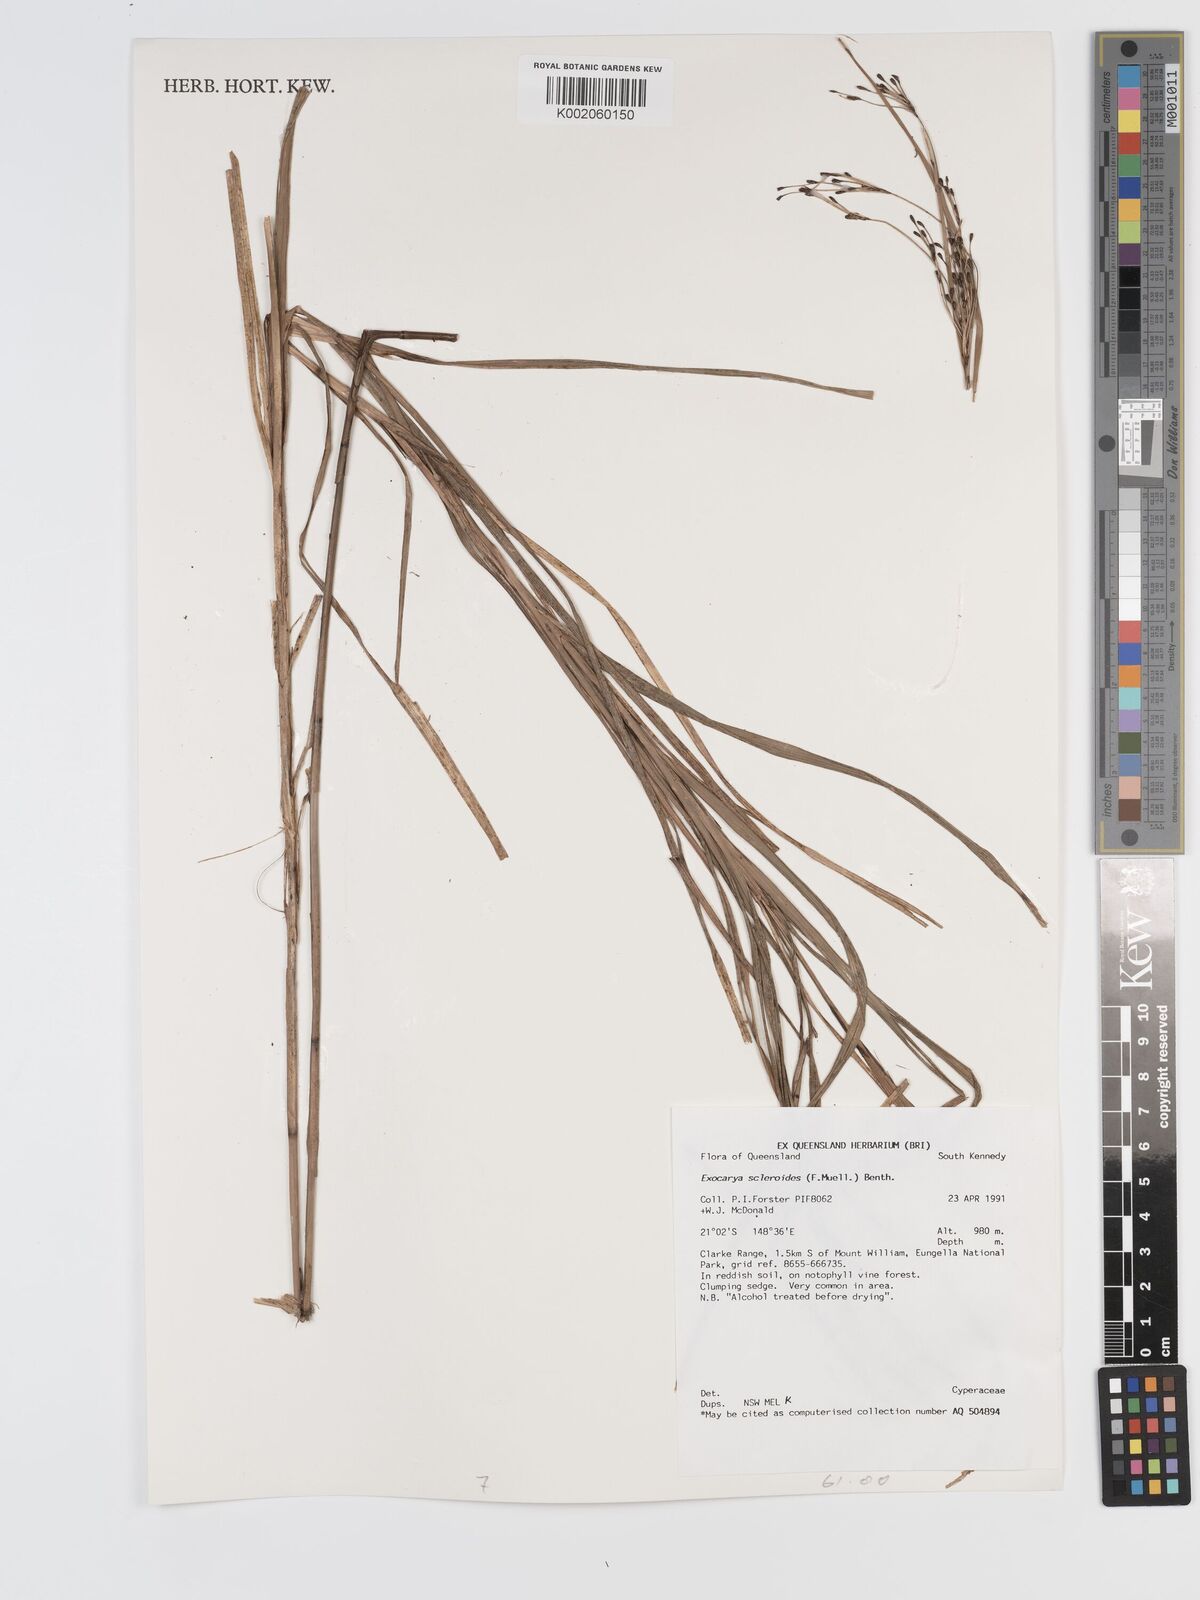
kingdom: Plantae
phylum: Tracheophyta
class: Liliopsida
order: Poales
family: Cyperaceae
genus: Exocarya
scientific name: Exocarya sclerioides
